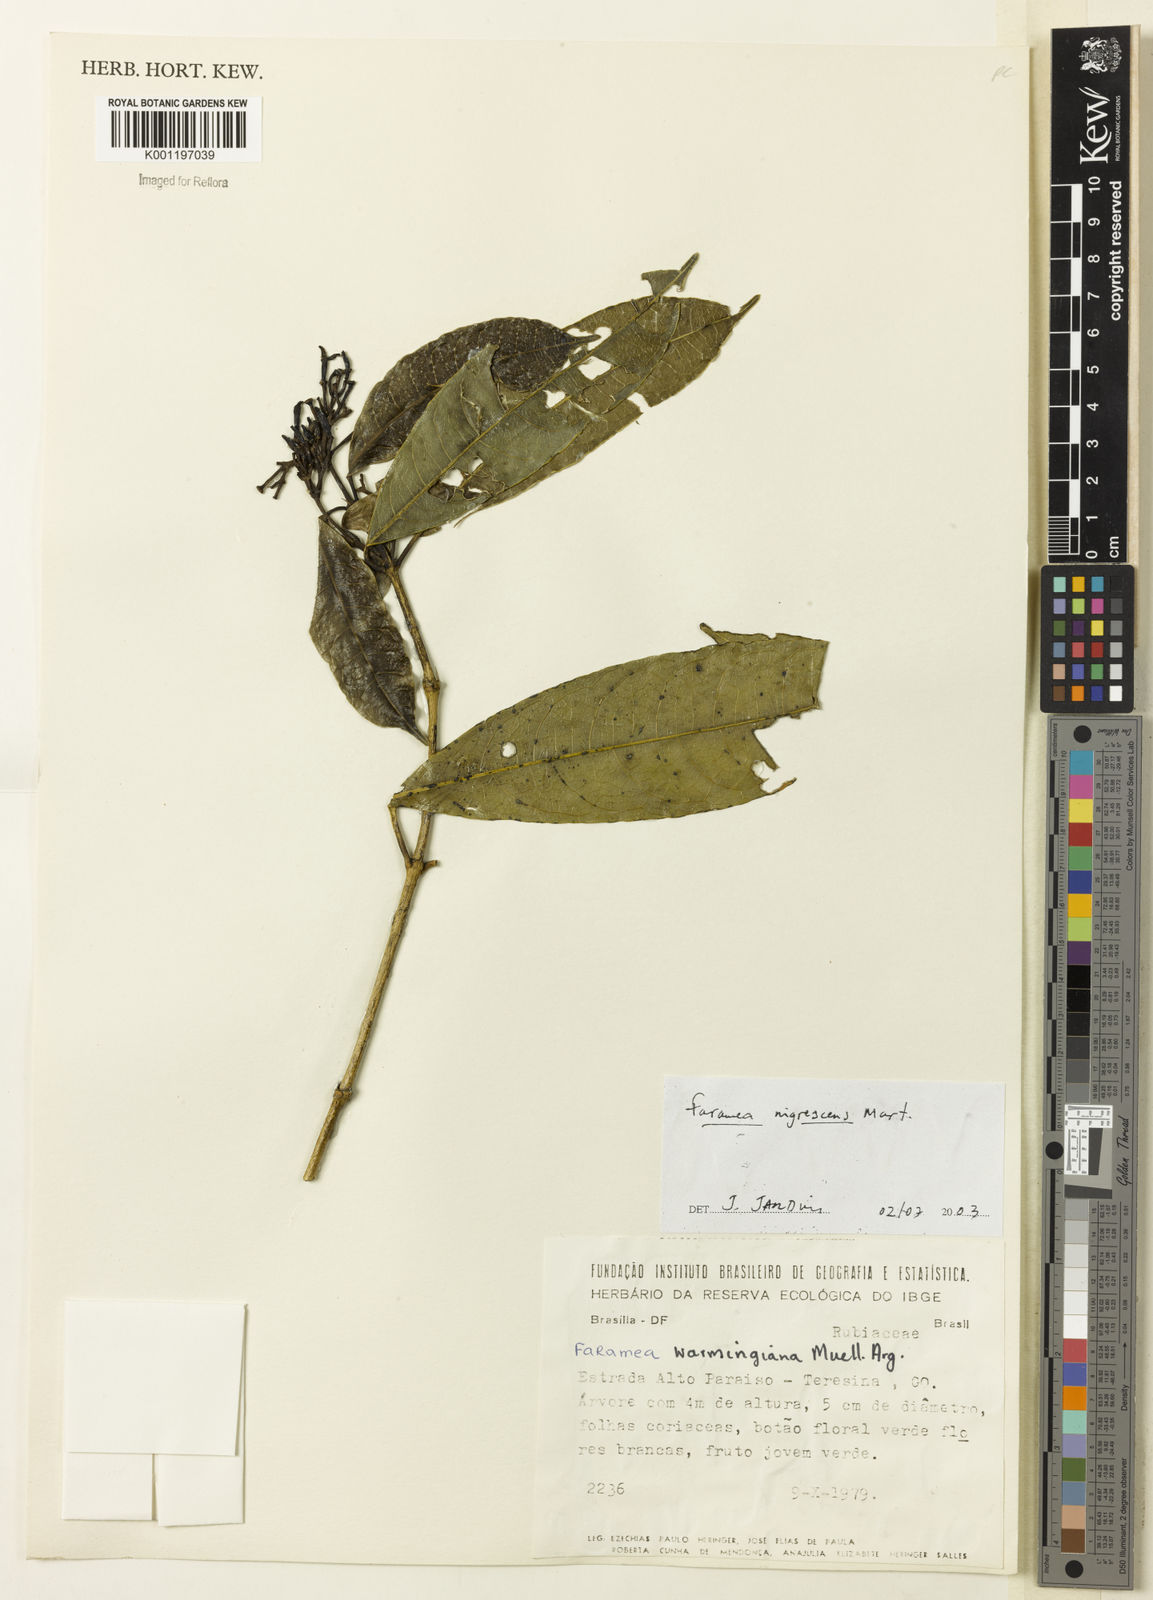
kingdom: Plantae
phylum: Tracheophyta
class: Magnoliopsida
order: Gentianales
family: Rubiaceae
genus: Faramea
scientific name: Faramea nigrescens
